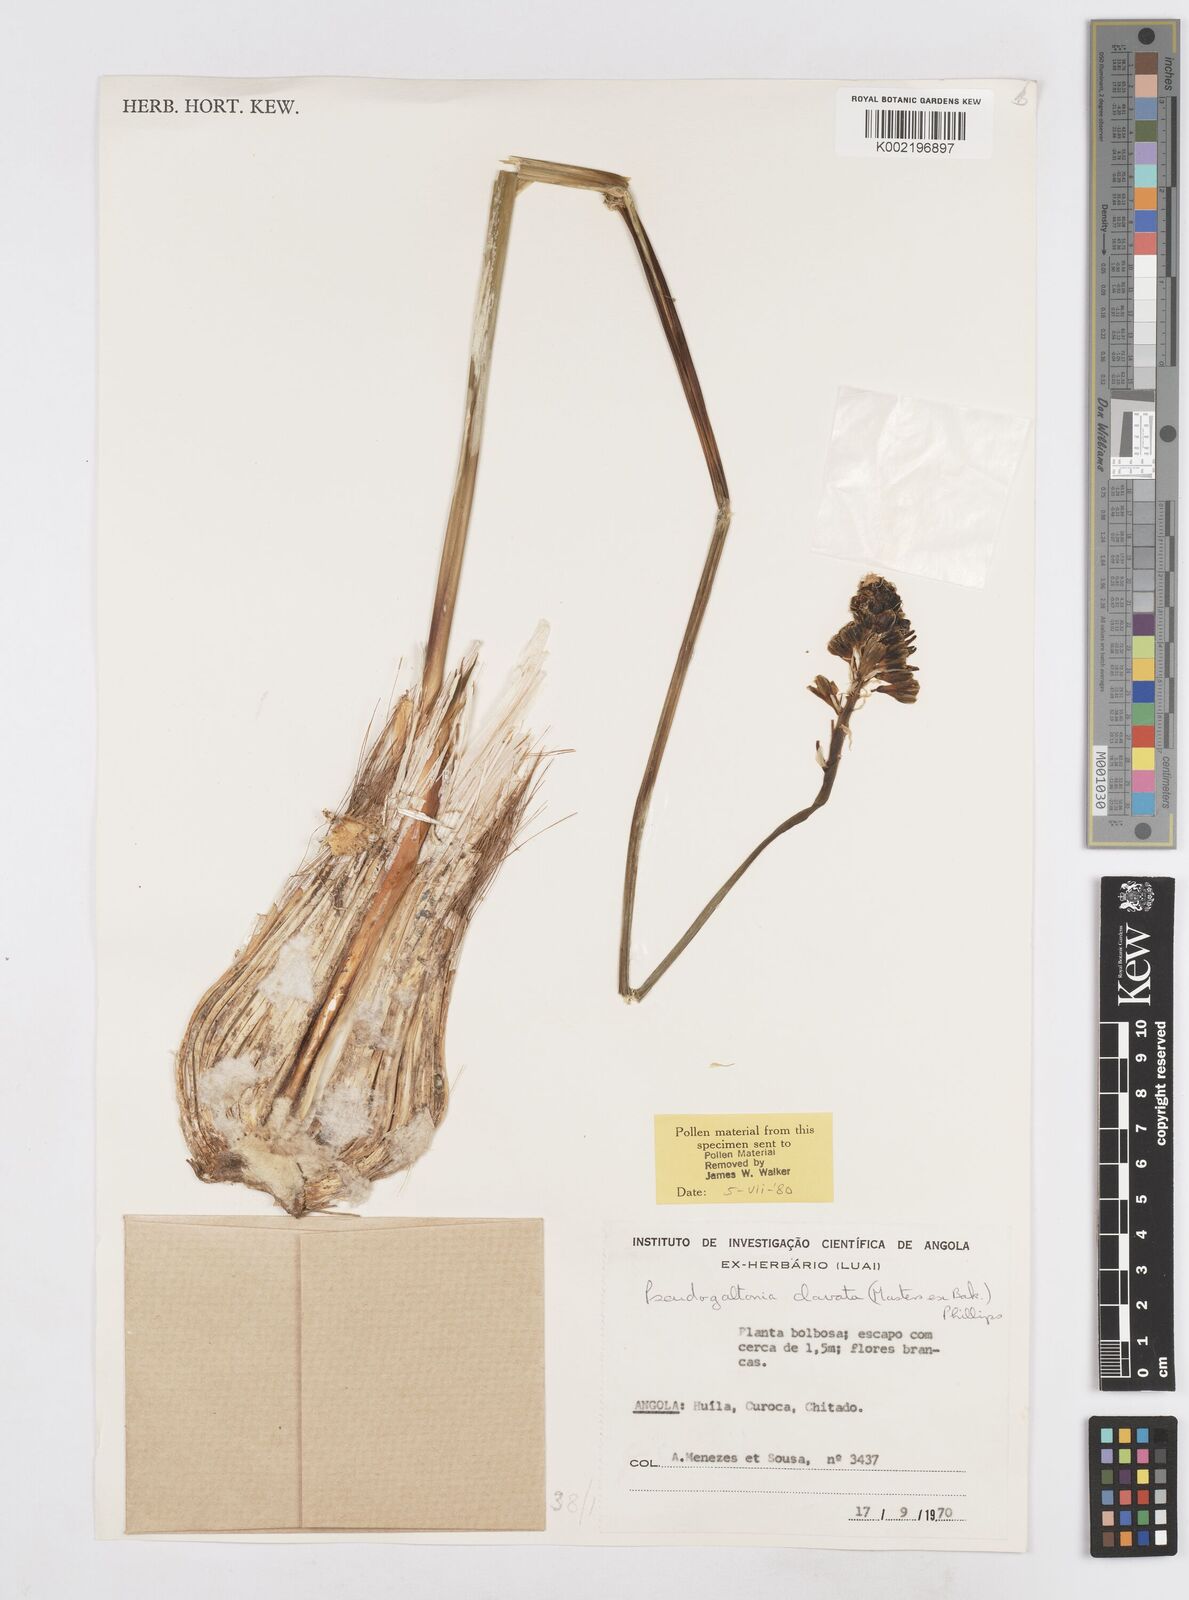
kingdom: Plantae
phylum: Tracheophyta
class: Liliopsida
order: Asparagales
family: Asparagaceae
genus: Pseudogaltonia
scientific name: Pseudogaltonia clavata
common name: South west african slangkop
